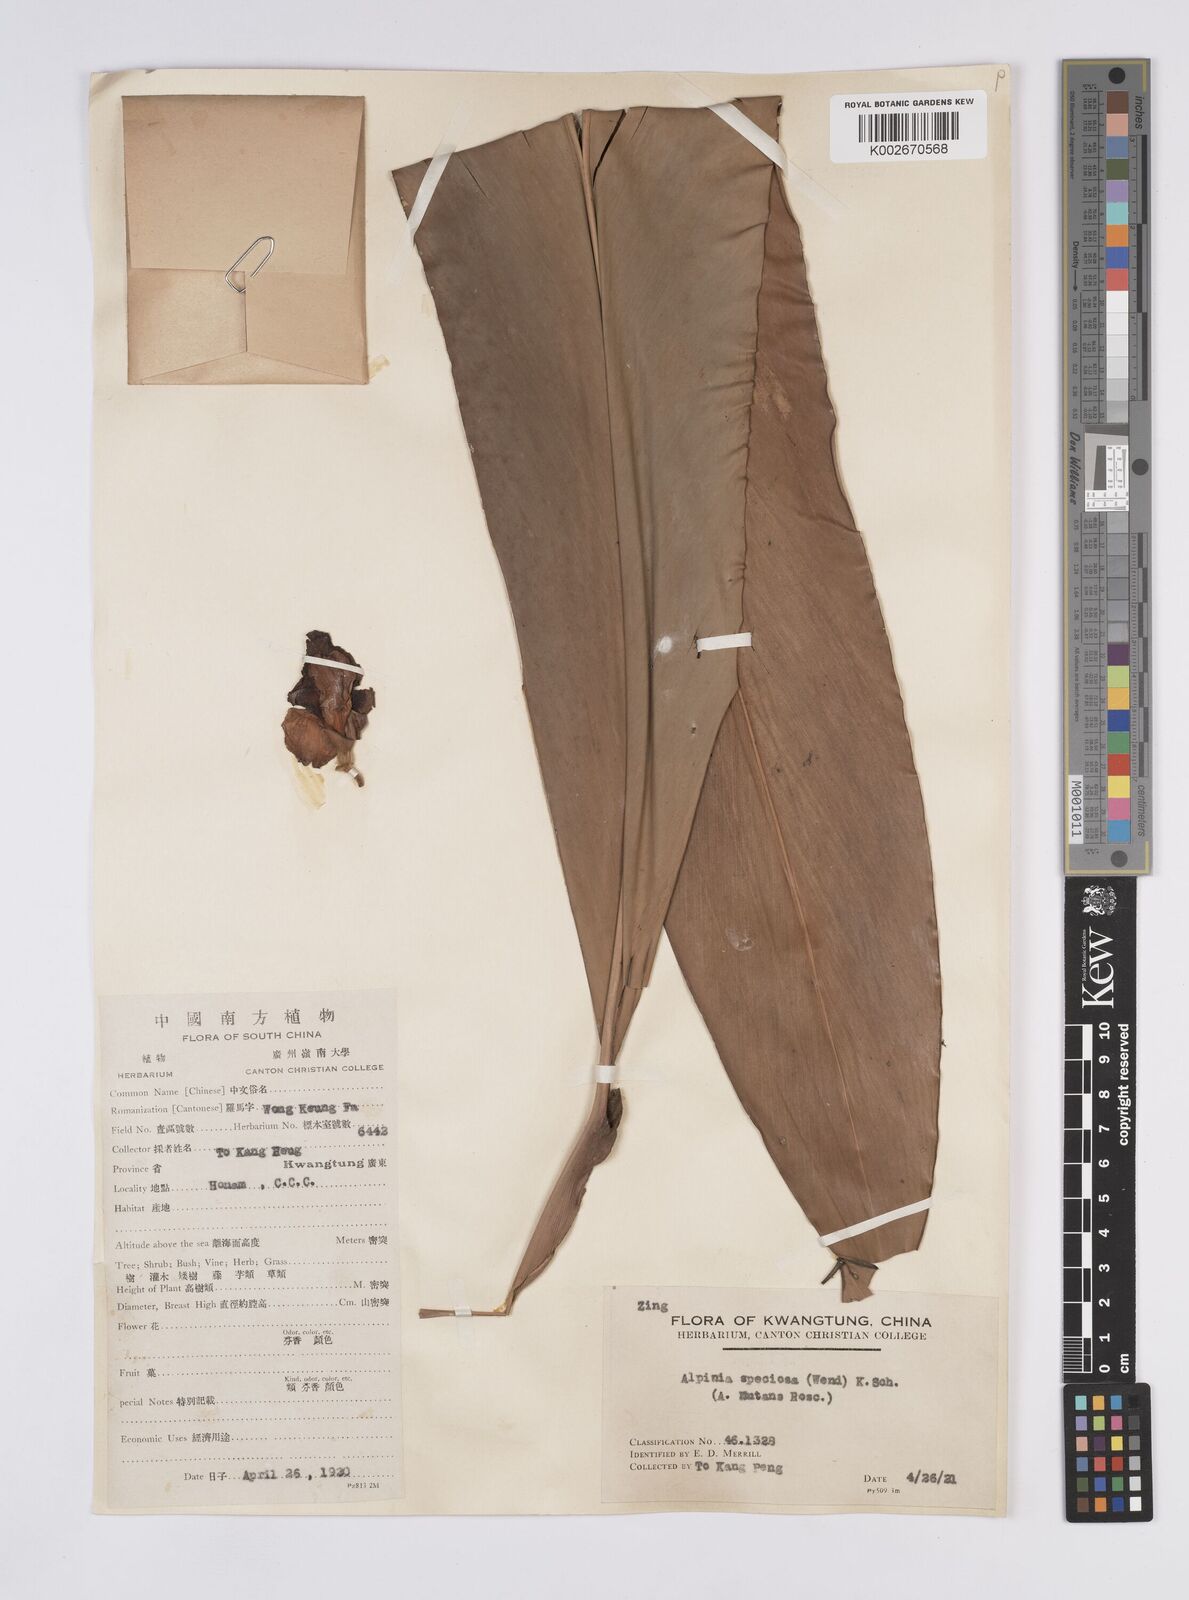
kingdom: Plantae
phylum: Tracheophyta
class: Liliopsida
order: Zingiberales
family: Zingiberaceae
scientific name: Zingiberaceae
